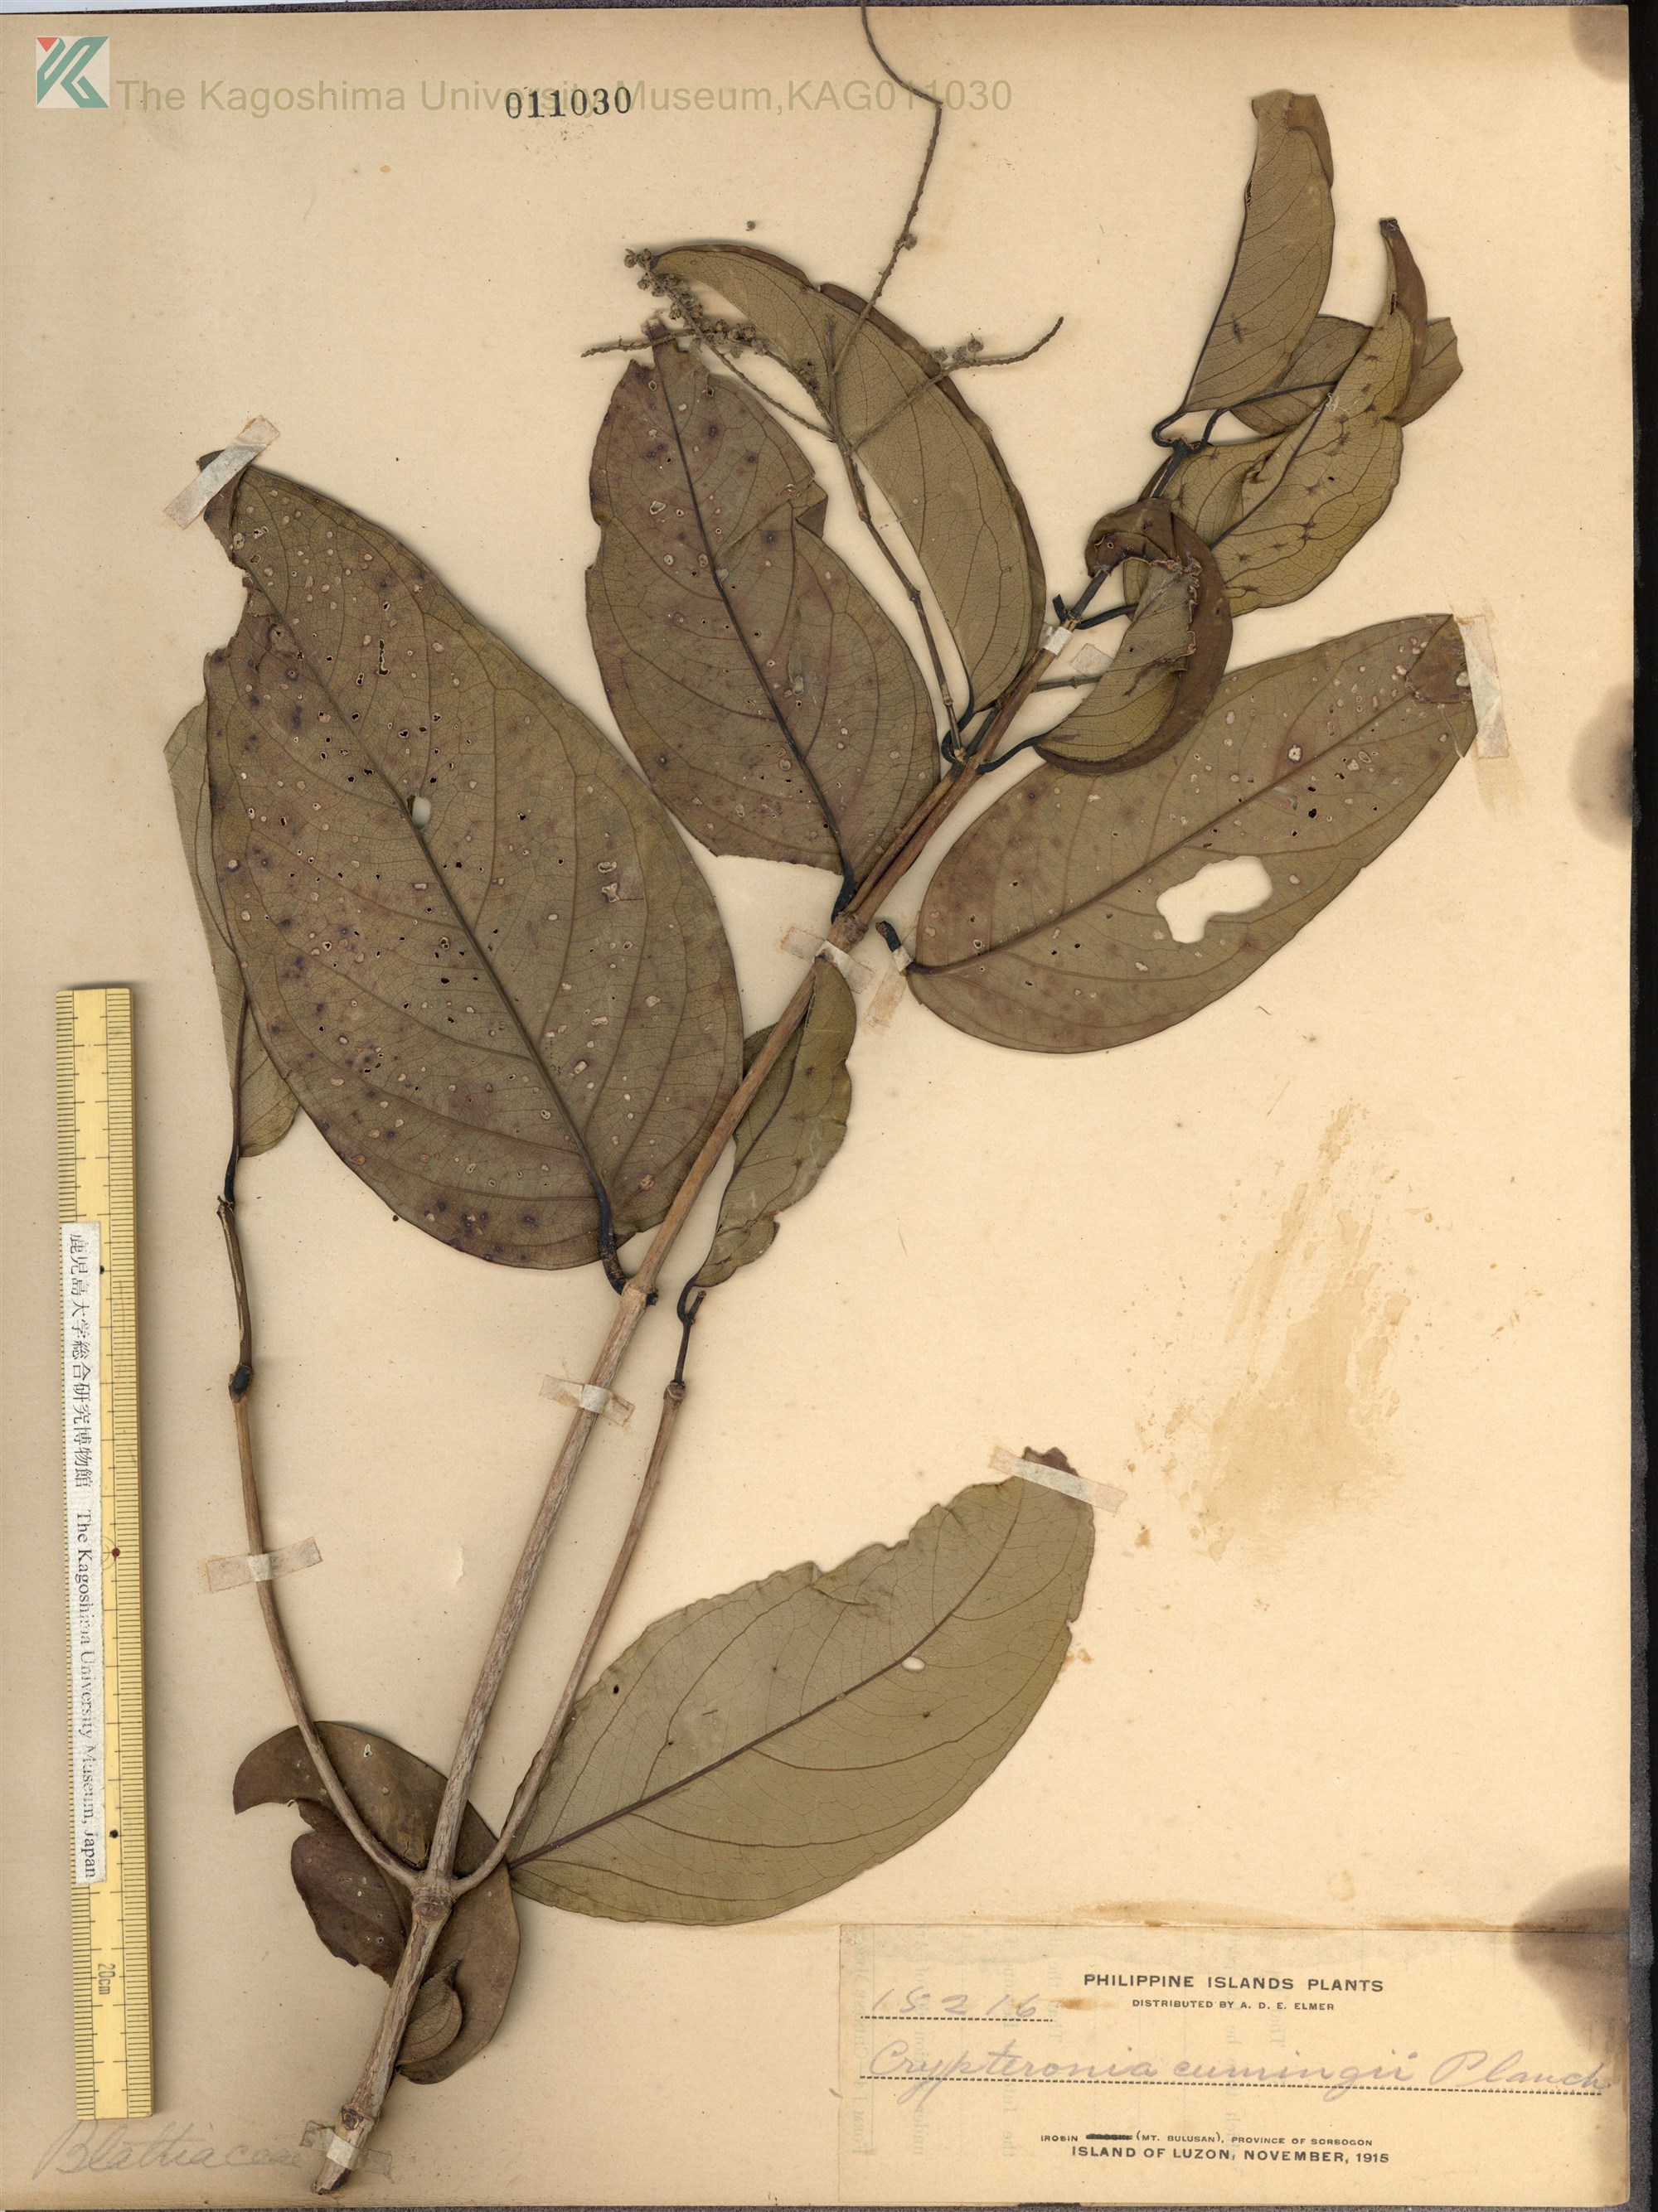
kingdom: Plantae
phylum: Tracheophyta
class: Magnoliopsida
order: Myrtales
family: Crypteroniaceae
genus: Crypteronia
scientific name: Crypteronia cumingii
